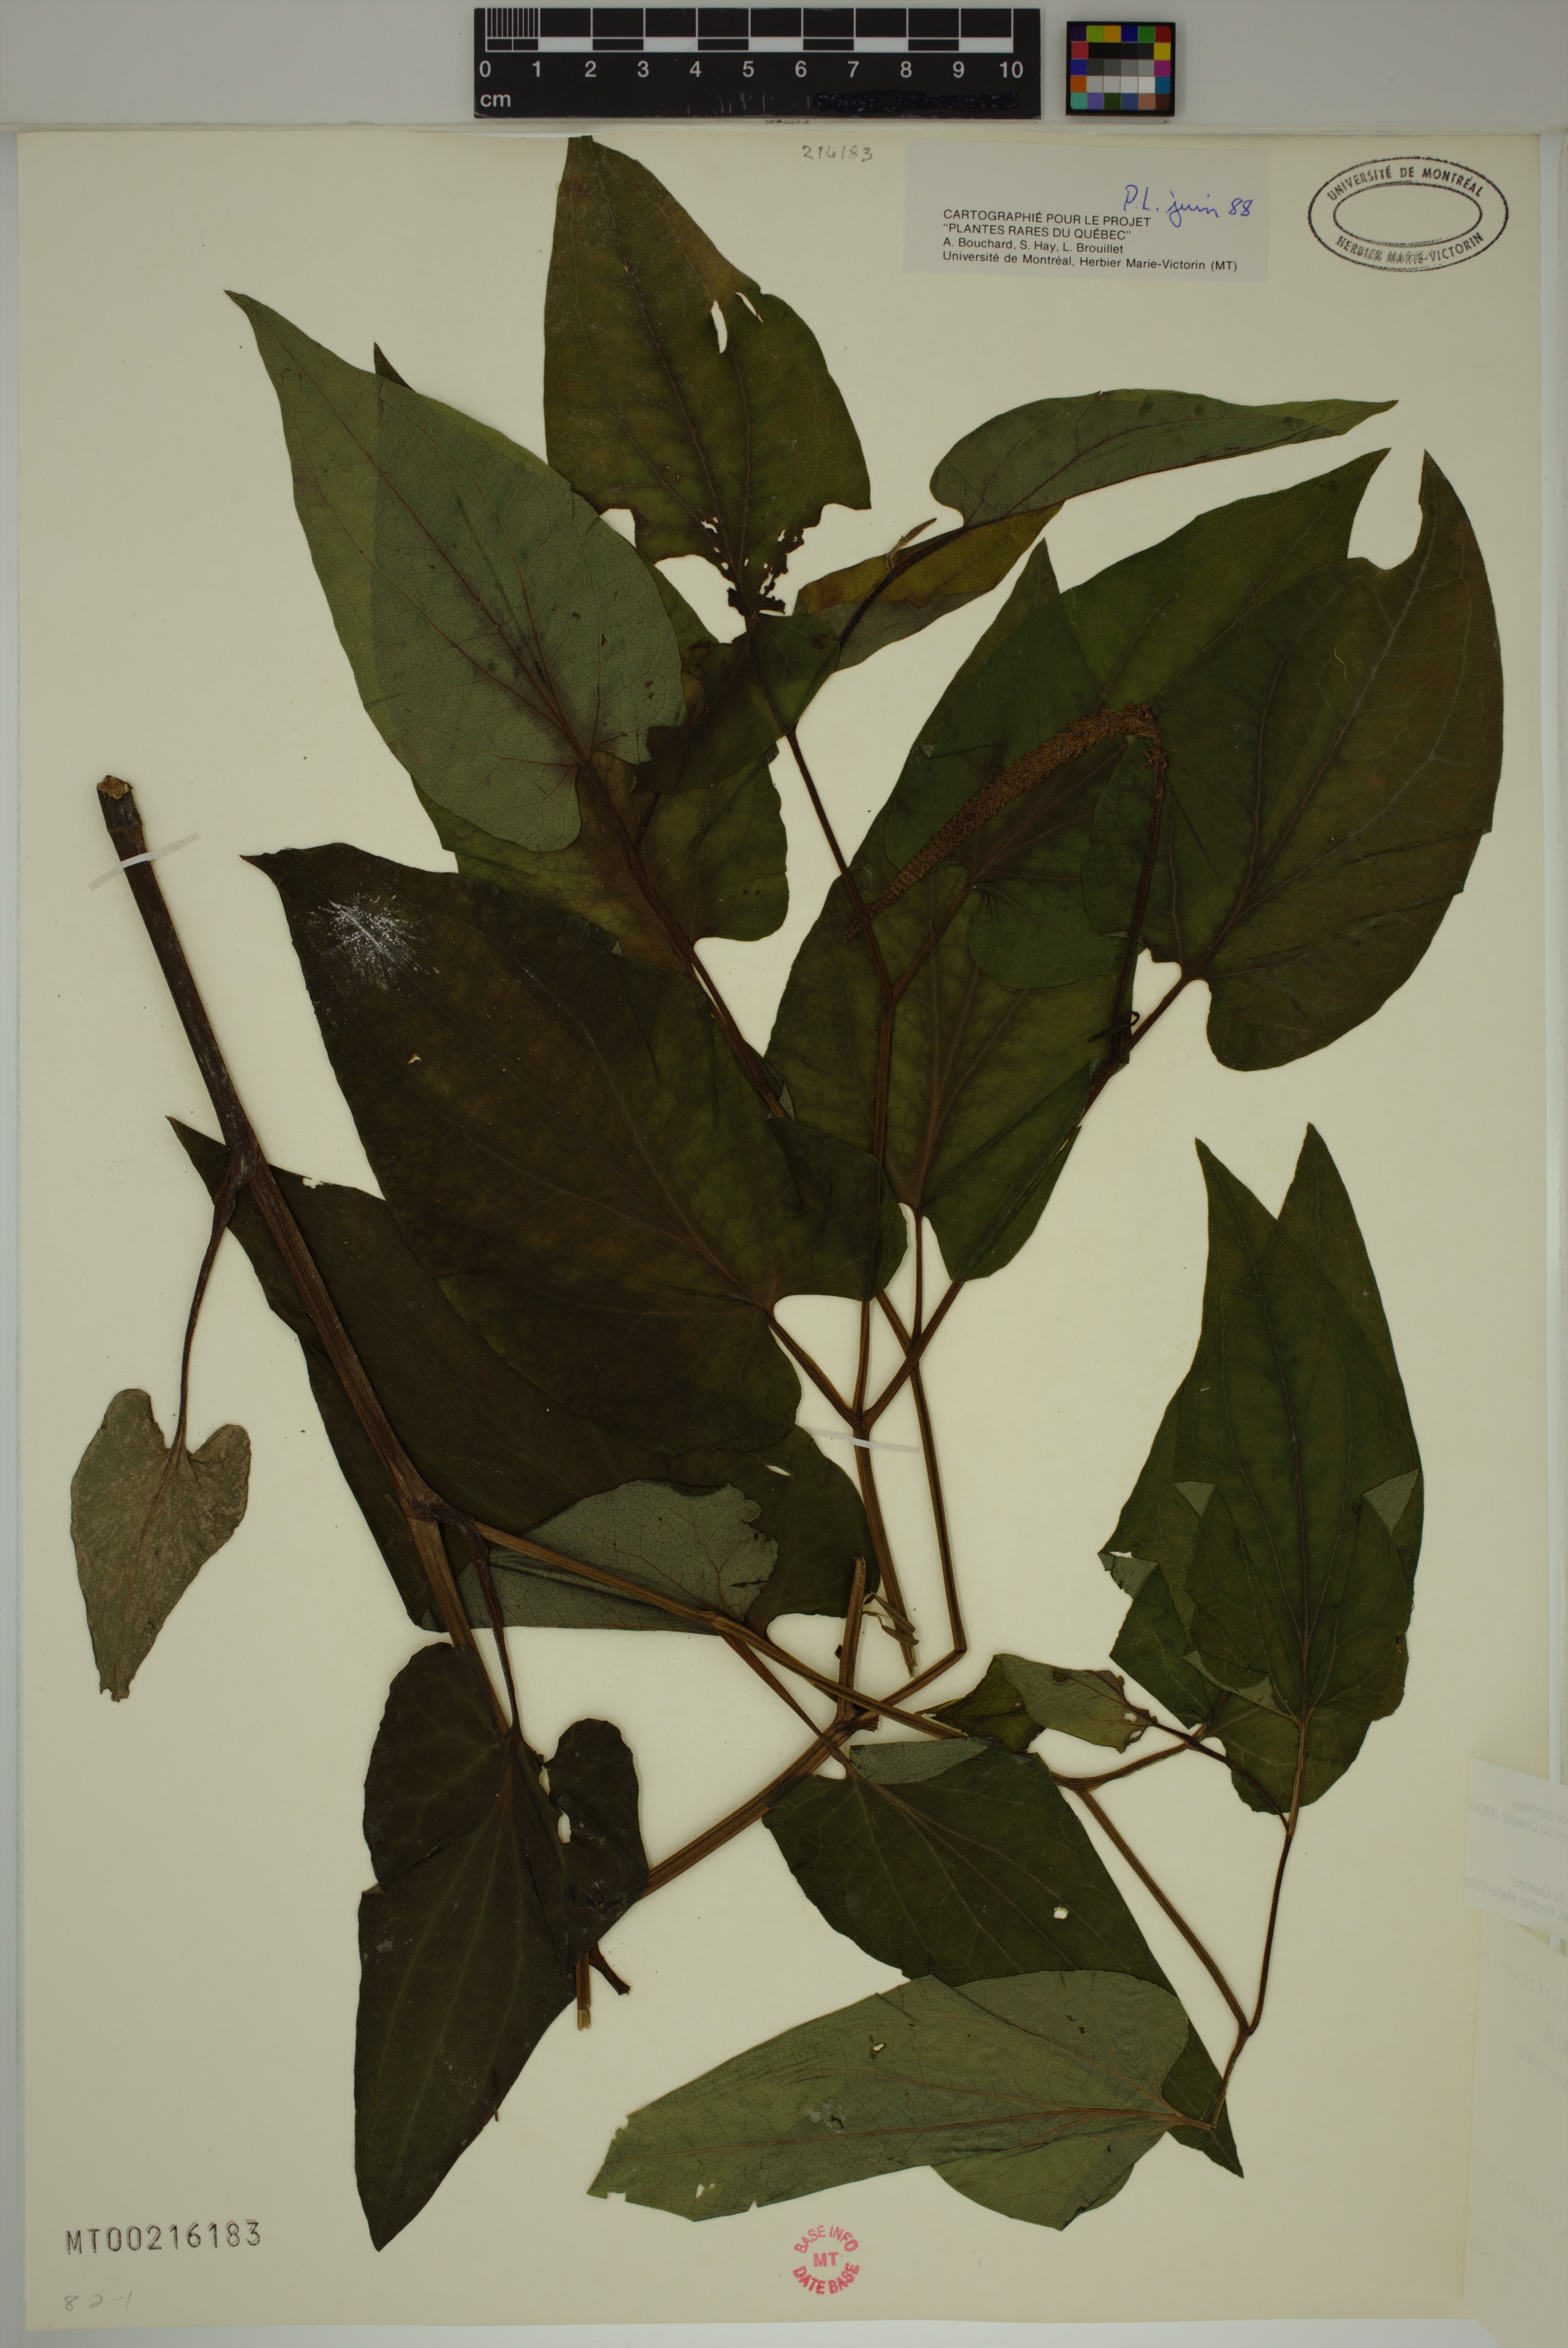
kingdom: Plantae
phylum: Tracheophyta
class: Magnoliopsida
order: Piperales
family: Saururaceae
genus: Saururus
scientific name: Saururus cernuus
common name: Lizard's-tail
